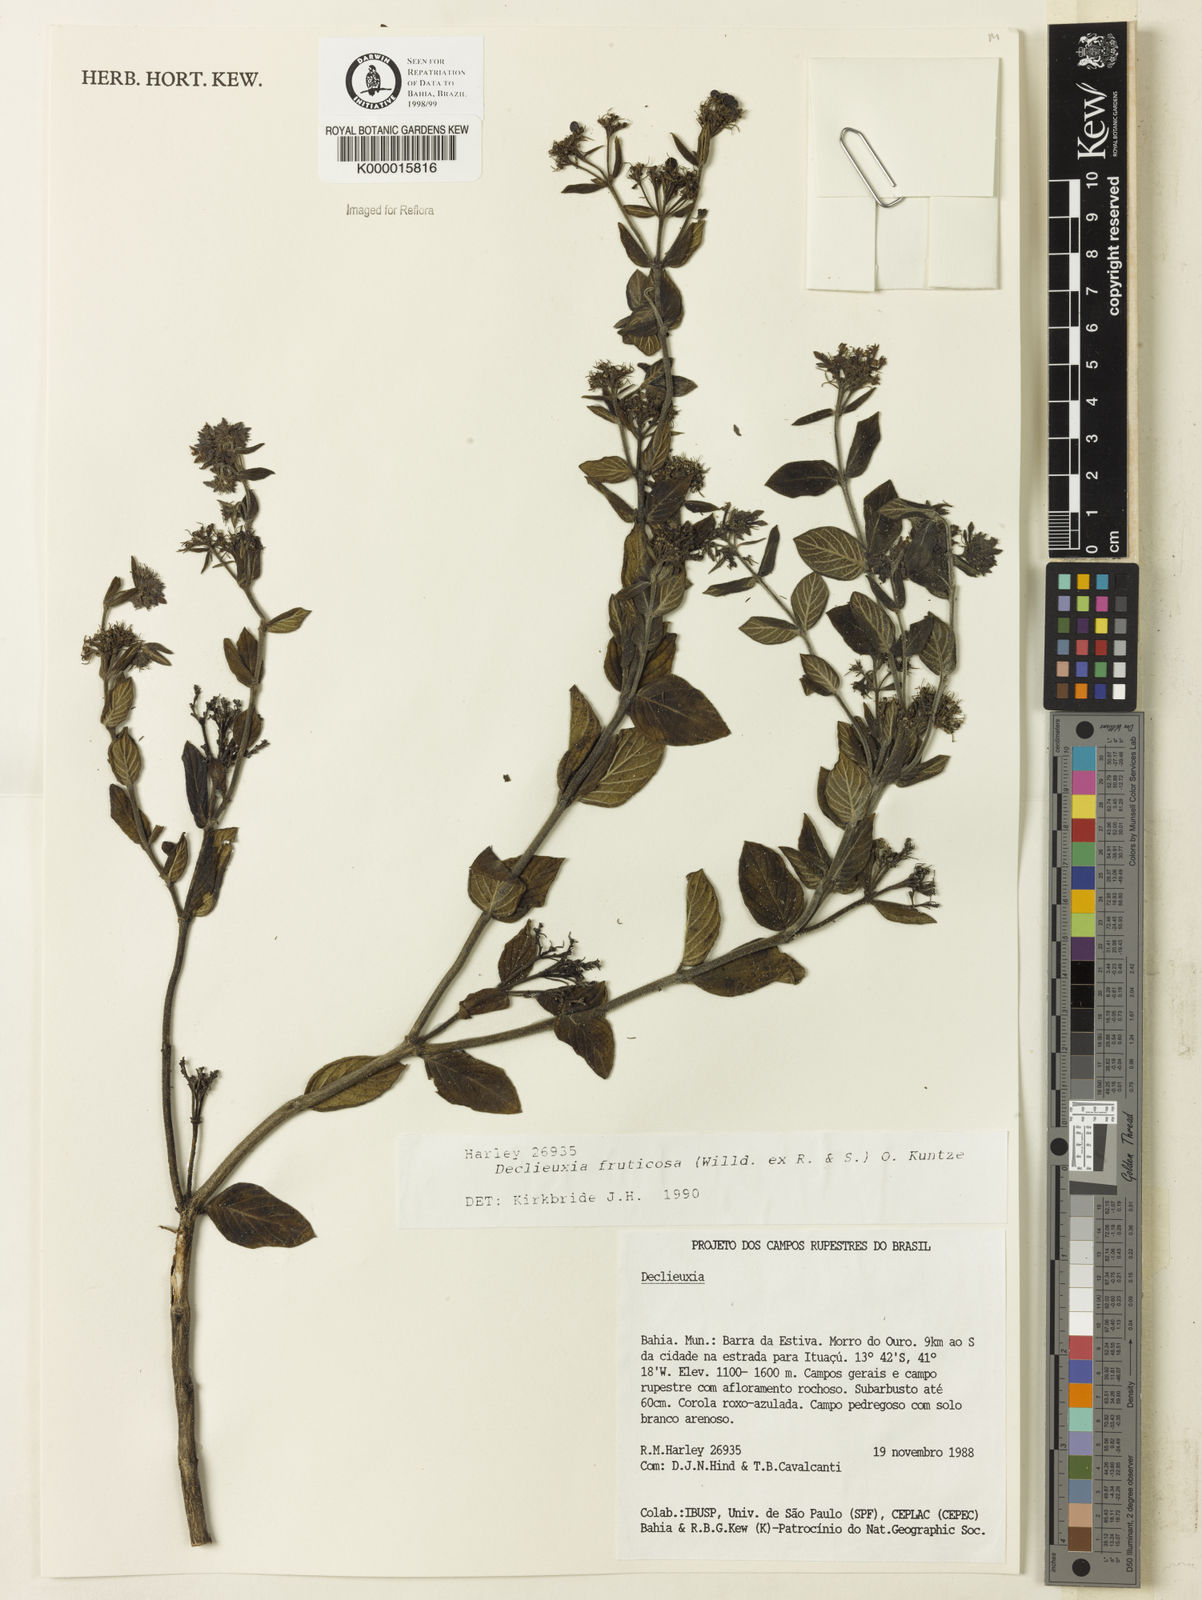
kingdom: Plantae
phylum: Tracheophyta
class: Magnoliopsida
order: Gentianales
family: Rubiaceae
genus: Declieuxia
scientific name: Declieuxia fruticosa
